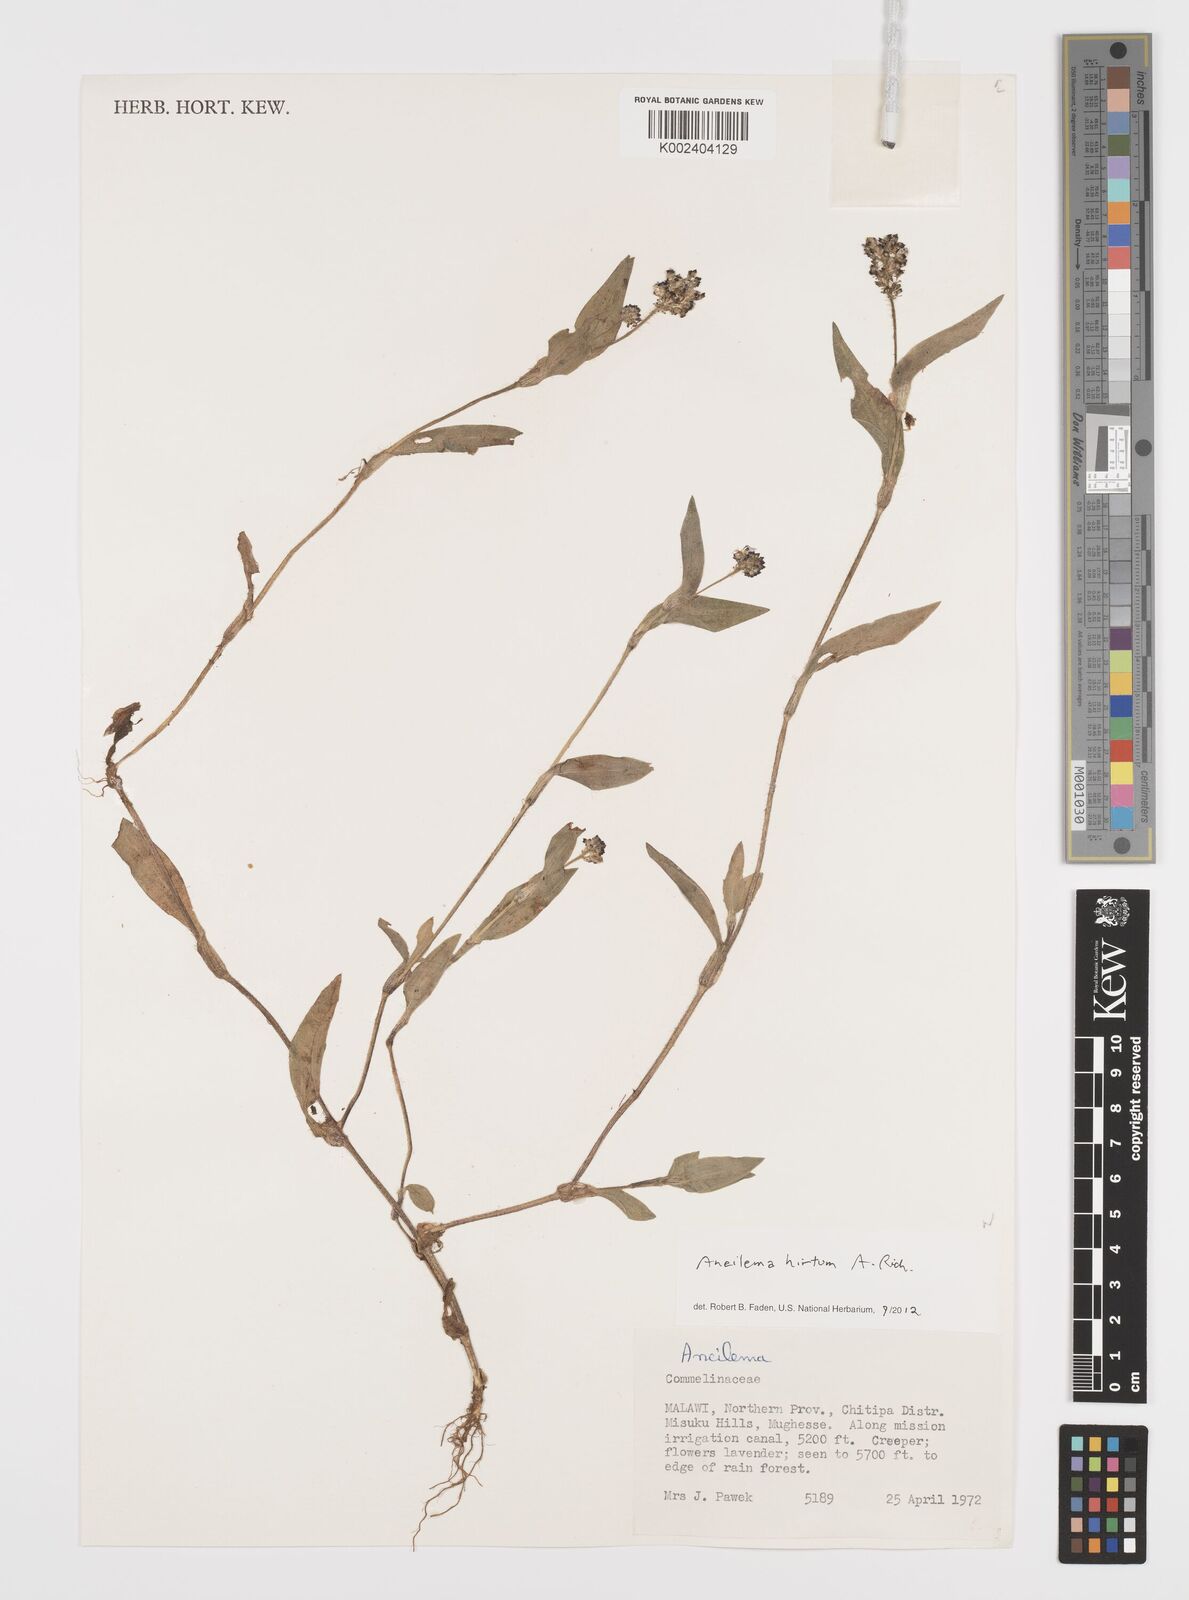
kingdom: Plantae
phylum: Tracheophyta
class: Liliopsida
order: Commelinales
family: Commelinaceae
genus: Aneilema
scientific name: Aneilema hirtum
